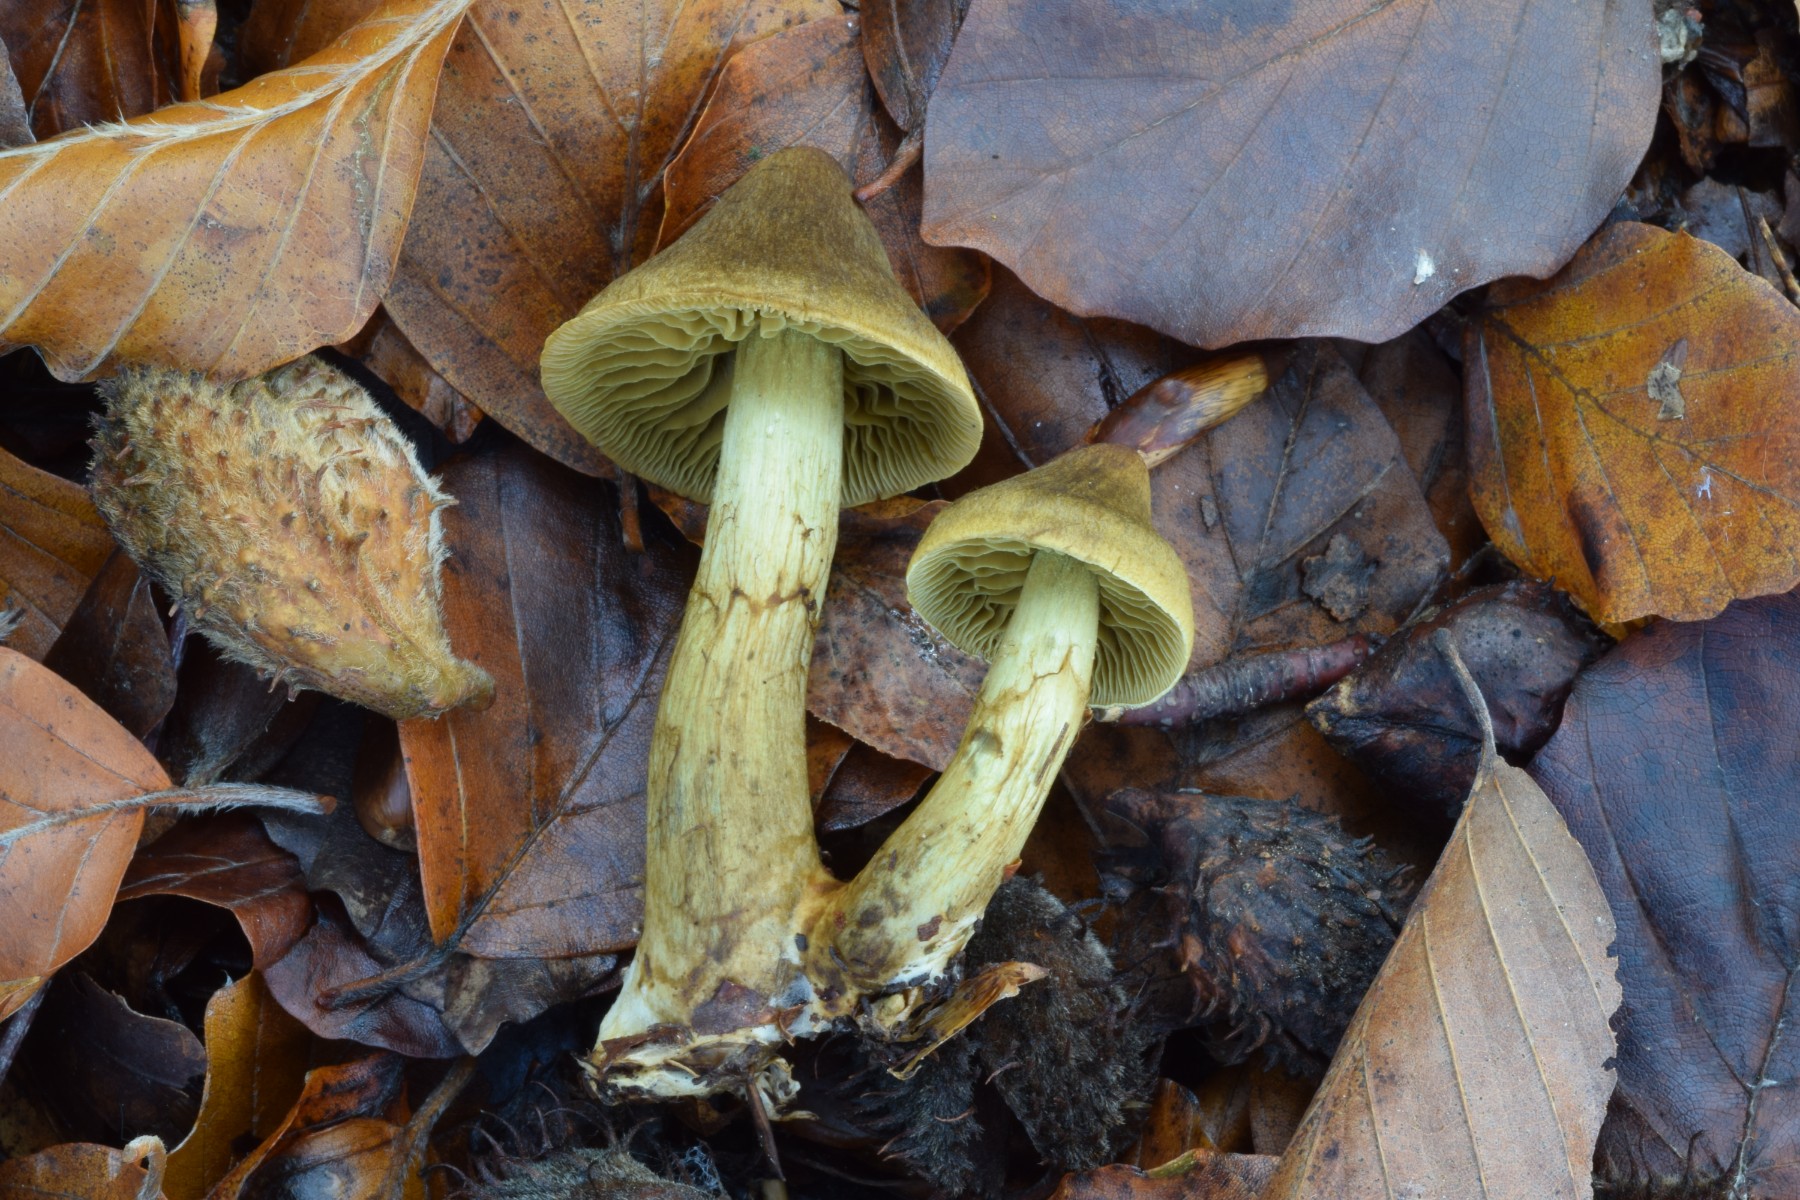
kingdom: Fungi
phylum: Basidiomycota
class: Agaricomycetes
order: Agaricales
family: Cortinariaceae
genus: Cortinarius
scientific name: Cortinarius olivaceofuscus
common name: olivenbrun slørhat
